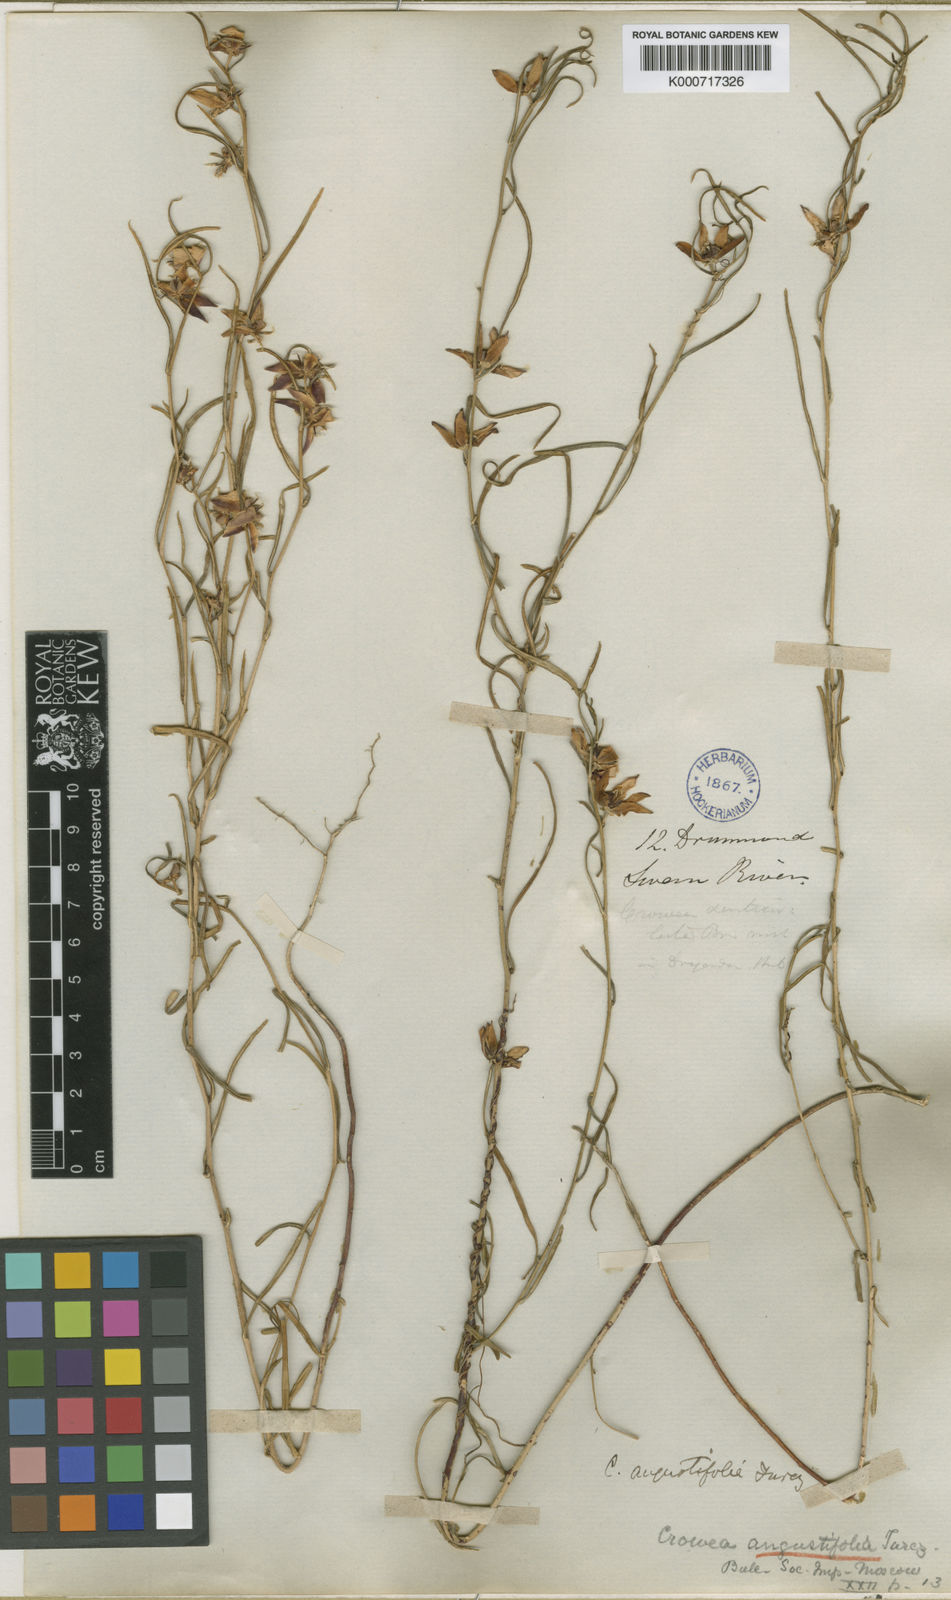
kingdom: Plantae
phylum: Tracheophyta
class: Magnoliopsida
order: Sapindales
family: Rutaceae
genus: Crowea
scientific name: Crowea angustifolia
